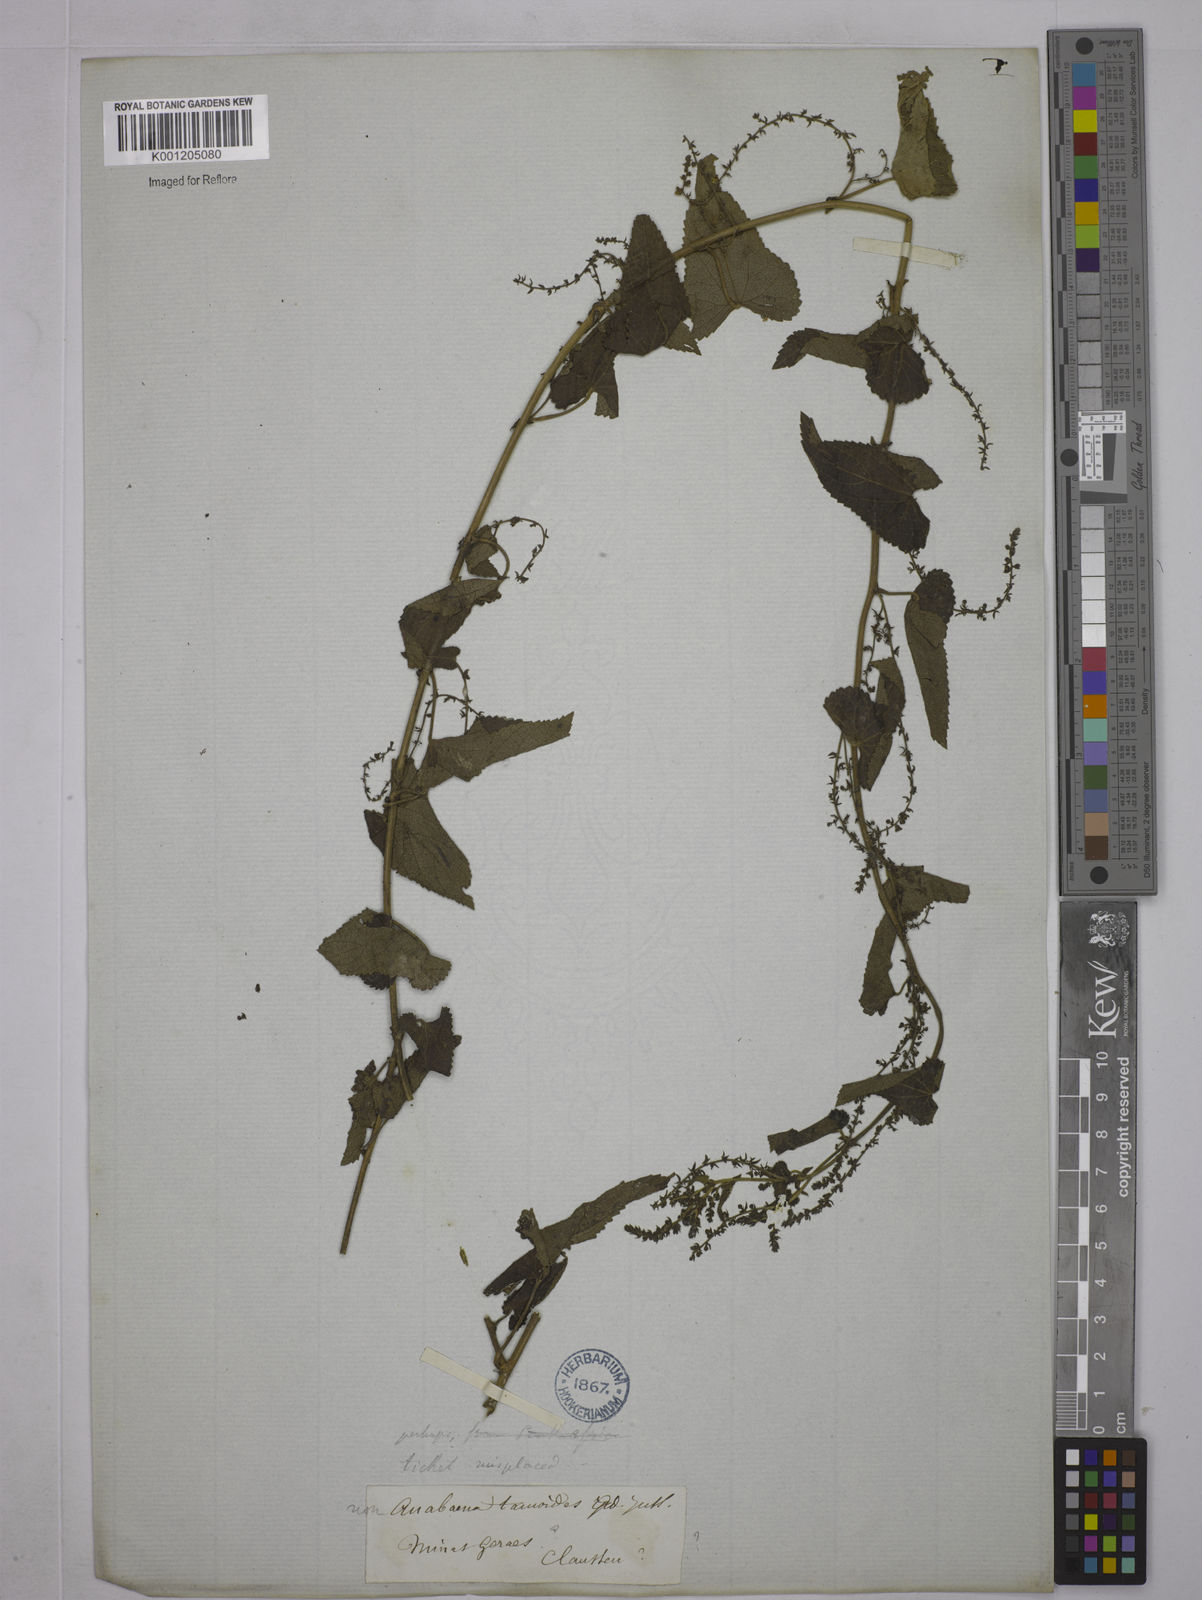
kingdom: Plantae
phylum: Tracheophyta
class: Magnoliopsida
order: Malpighiales
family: Euphorbiaceae
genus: Tragia
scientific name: Tragia
